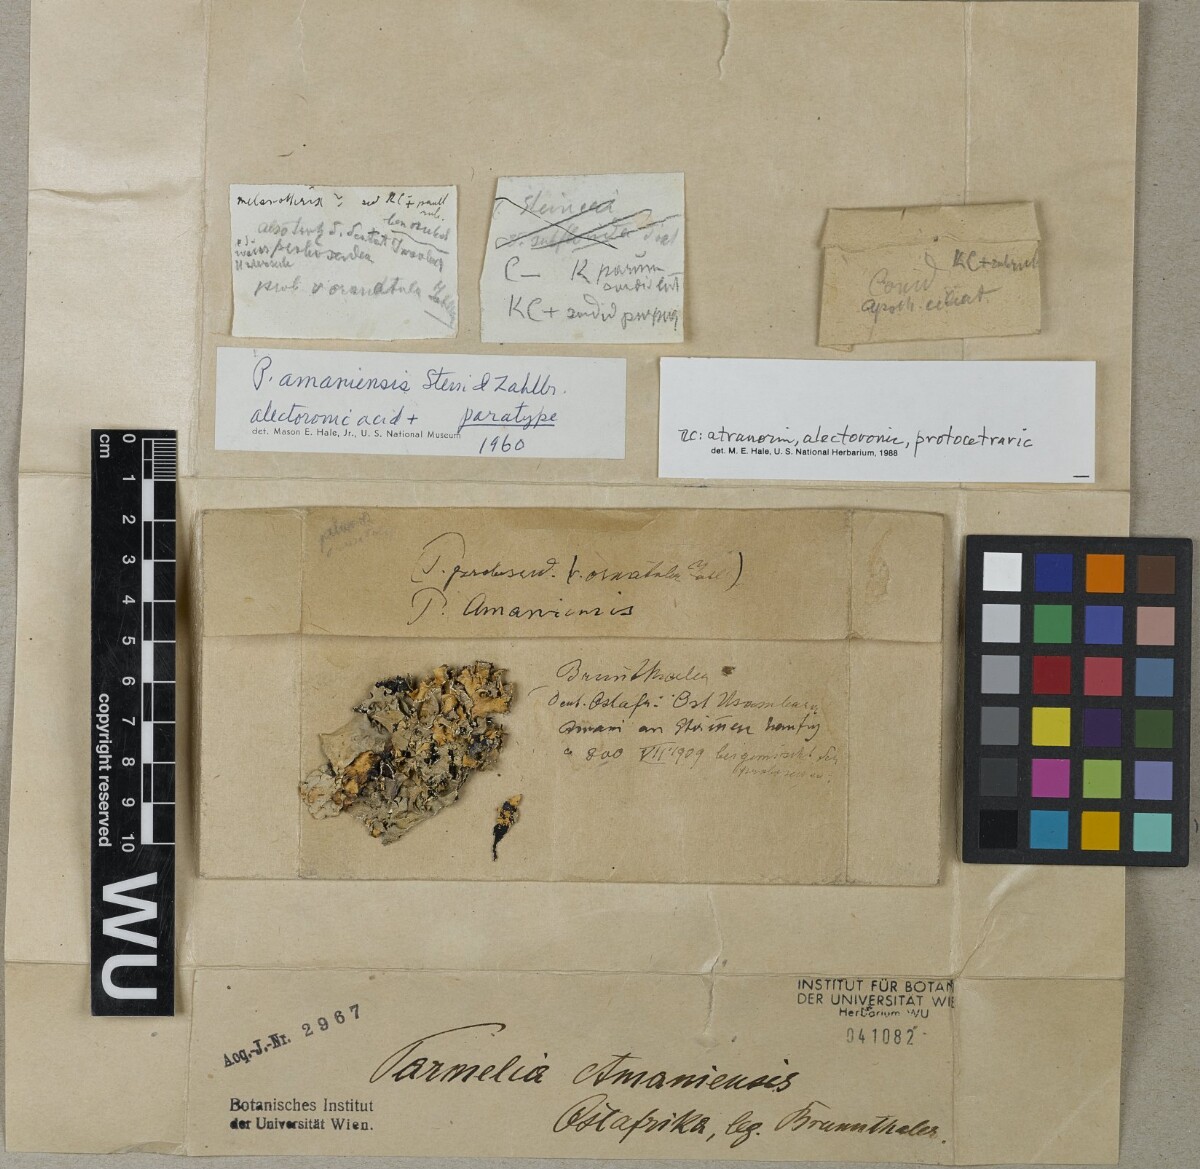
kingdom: Fungi
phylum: Ascomycota
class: Lecanoromycetes
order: Lecanorales
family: Parmeliaceae
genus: Parmotrema
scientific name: Parmotrema amaniense
